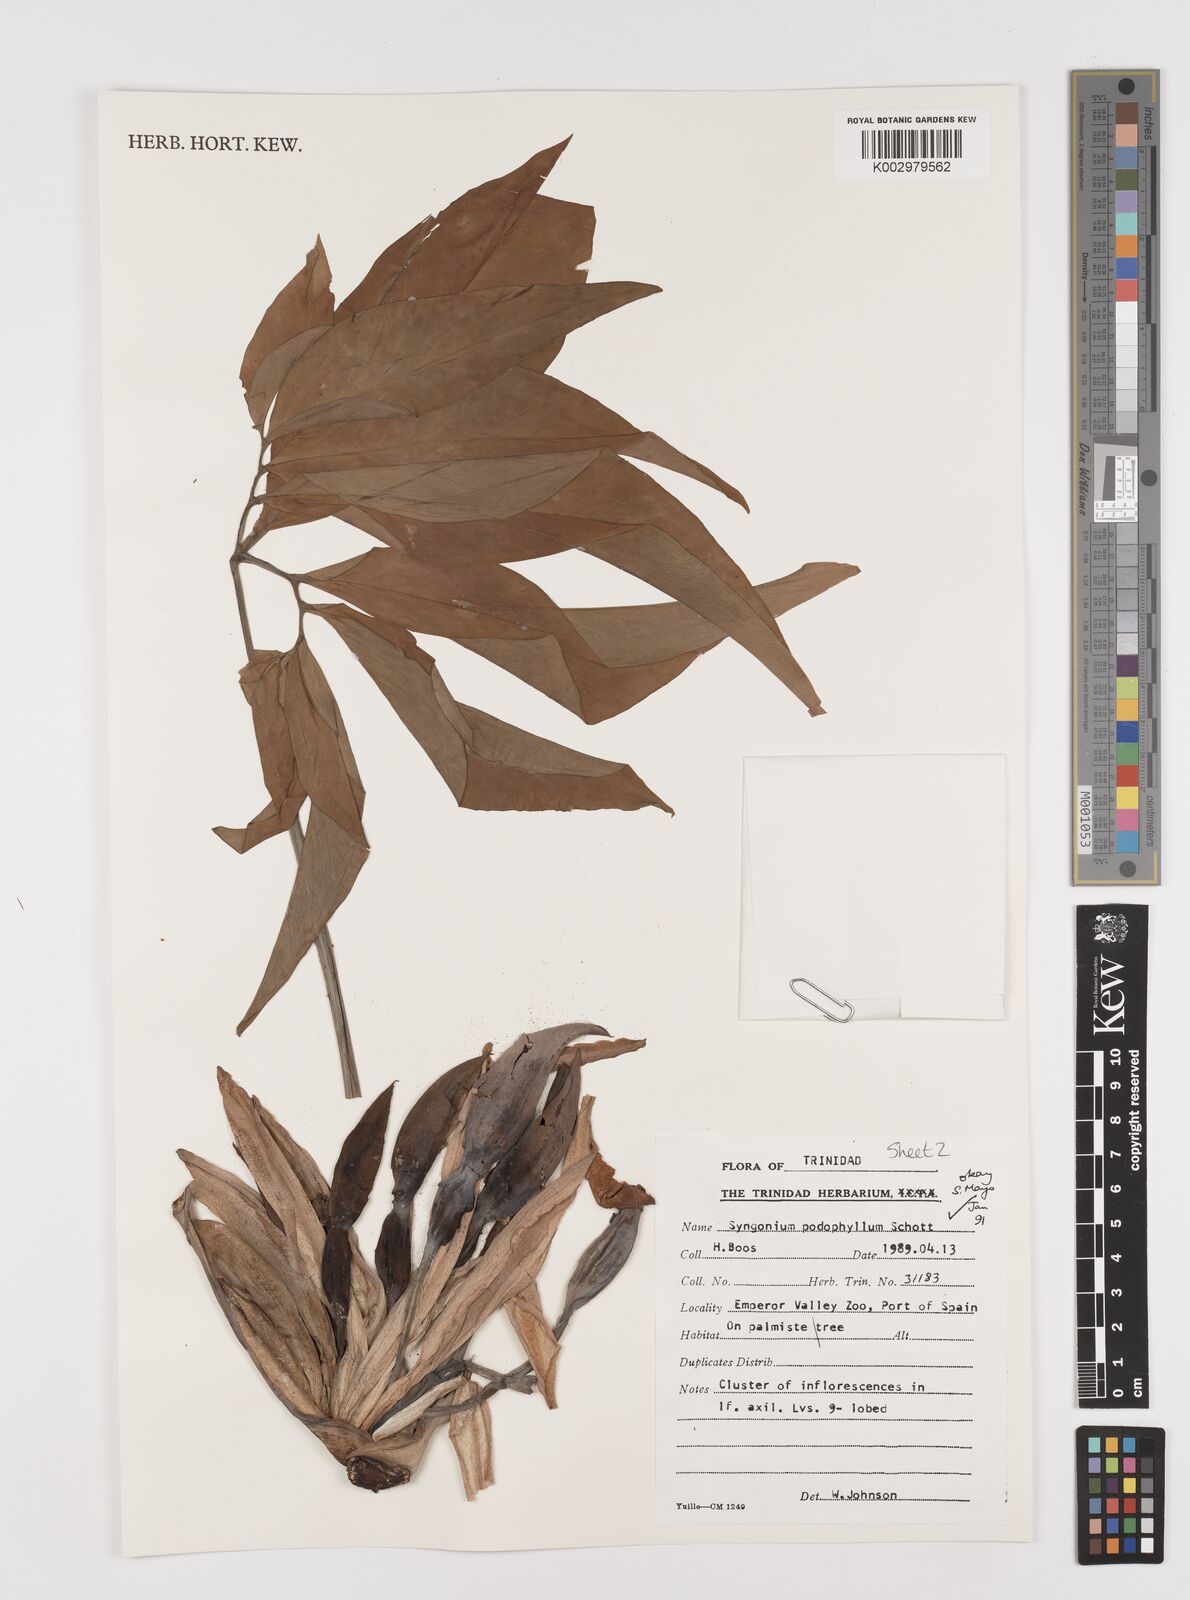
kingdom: Plantae
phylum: Tracheophyta
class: Liliopsida
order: Alismatales
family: Araceae
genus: Syngonium
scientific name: Syngonium podophyllum
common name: American evergreen
